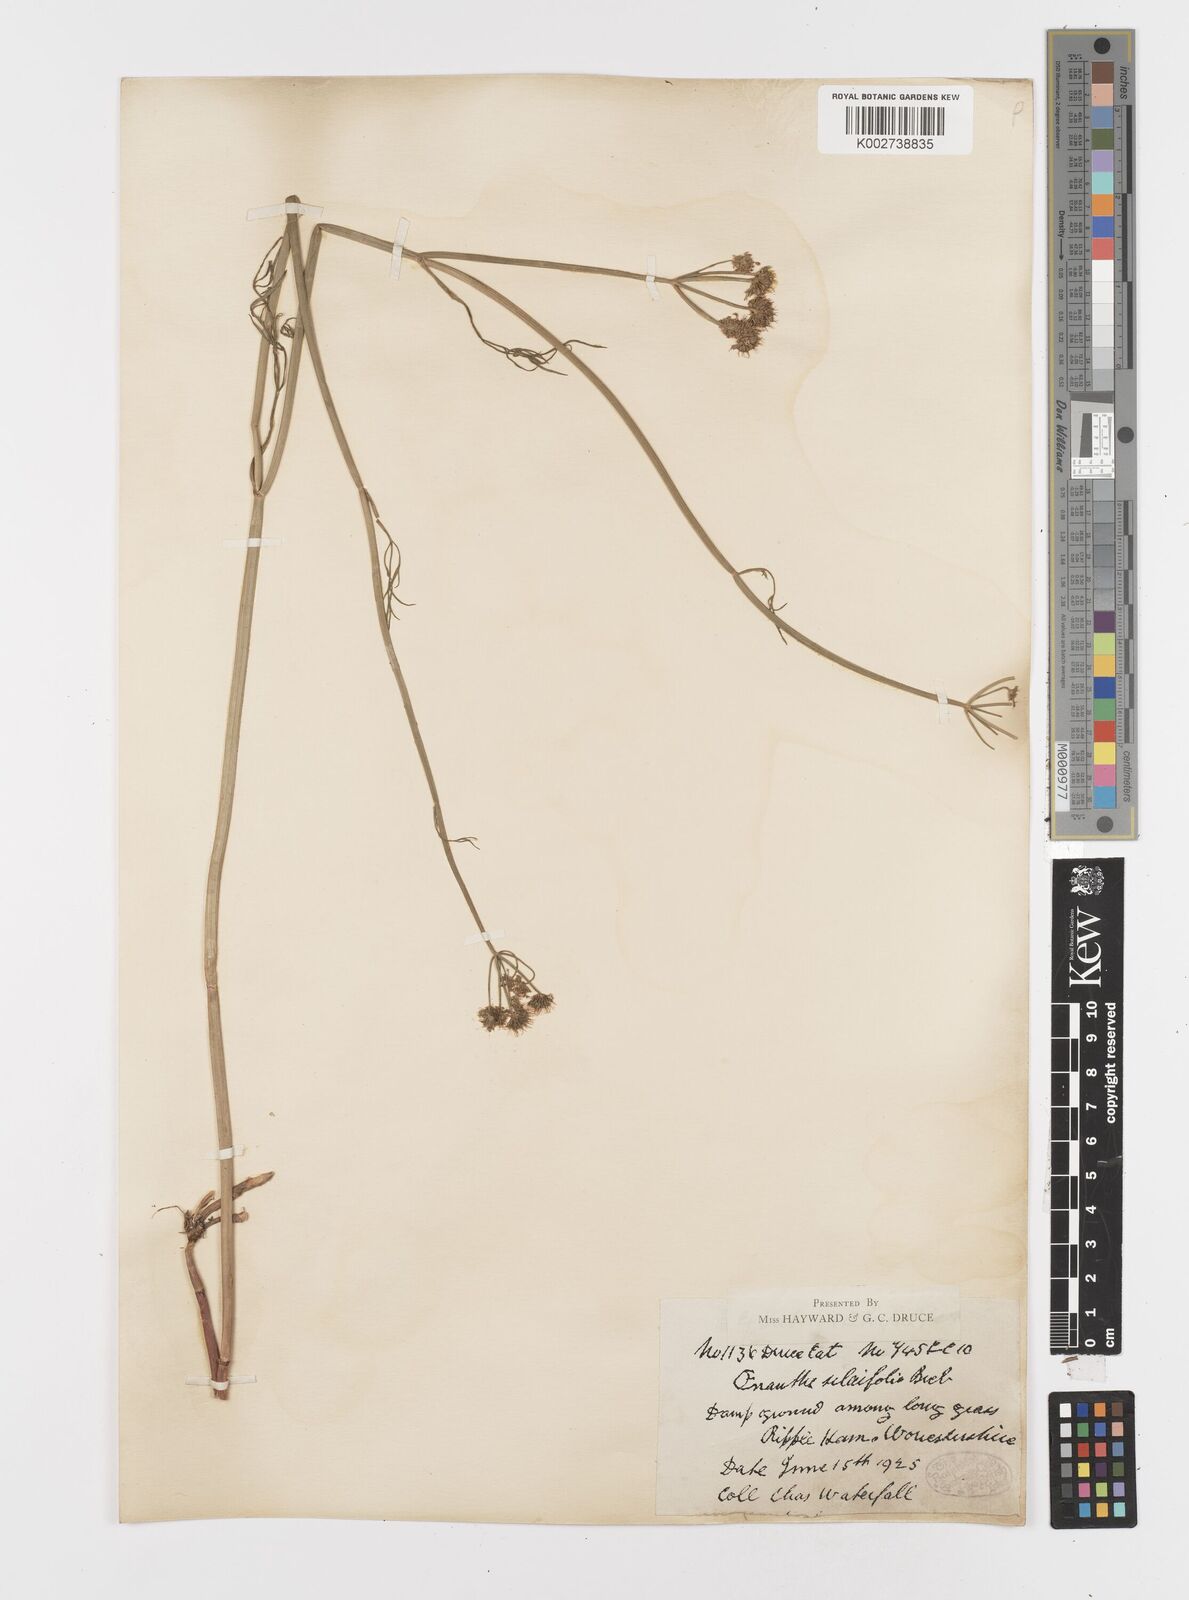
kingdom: Plantae
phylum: Tracheophyta
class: Magnoliopsida
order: Apiales
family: Apiaceae
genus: Oenanthe
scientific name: Oenanthe silaifolia
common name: Narrow-leaved water-dropwort
